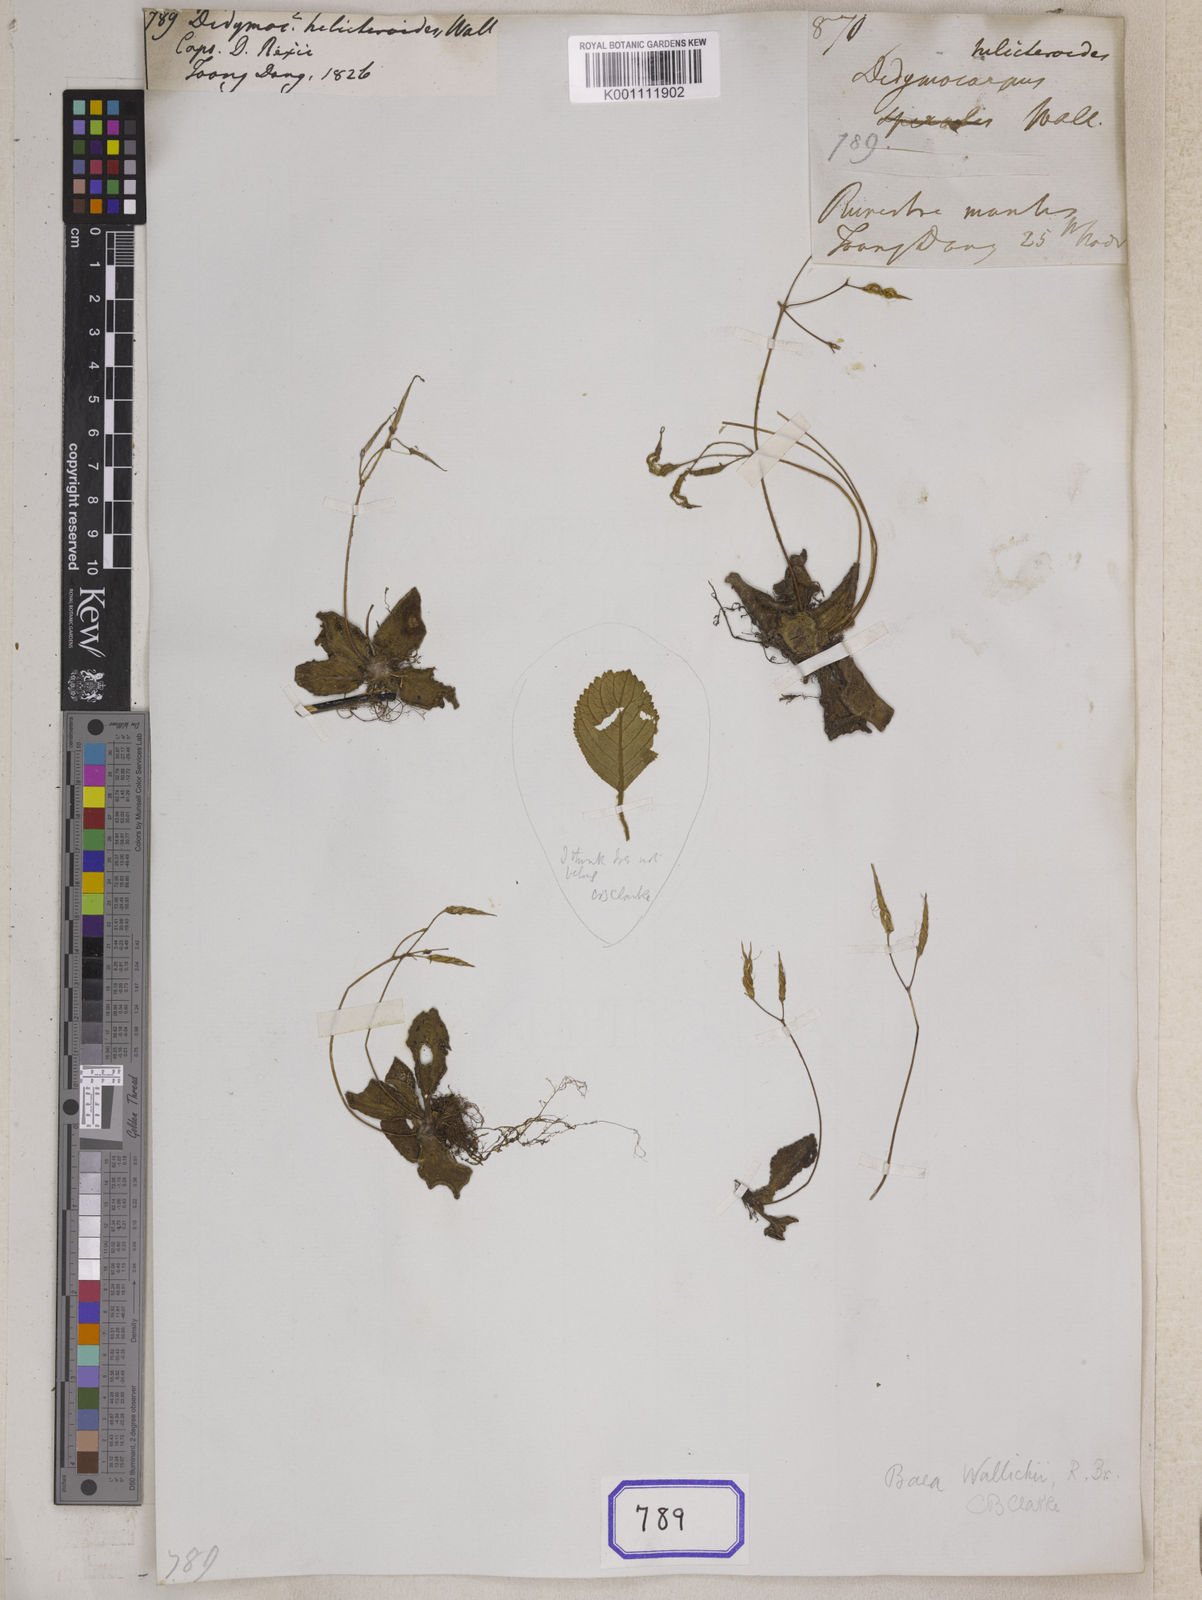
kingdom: Plantae
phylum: Tracheophyta
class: Magnoliopsida
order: Lamiales
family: Gesneriaceae
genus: Dorcoceras
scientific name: Dorcoceras wallichii
